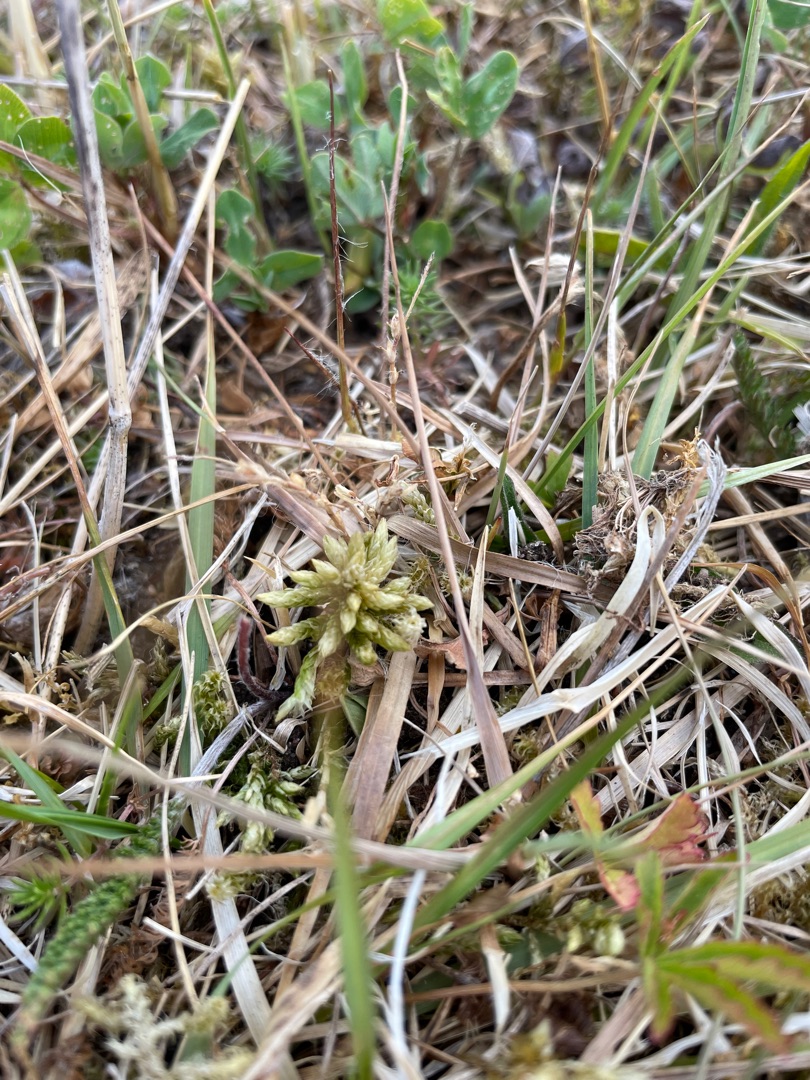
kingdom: Plantae
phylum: Bryophyta
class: Bryopsida
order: Hypnales
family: Climaciaceae
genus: Climacium
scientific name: Climacium dendroides
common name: Stor engkost
